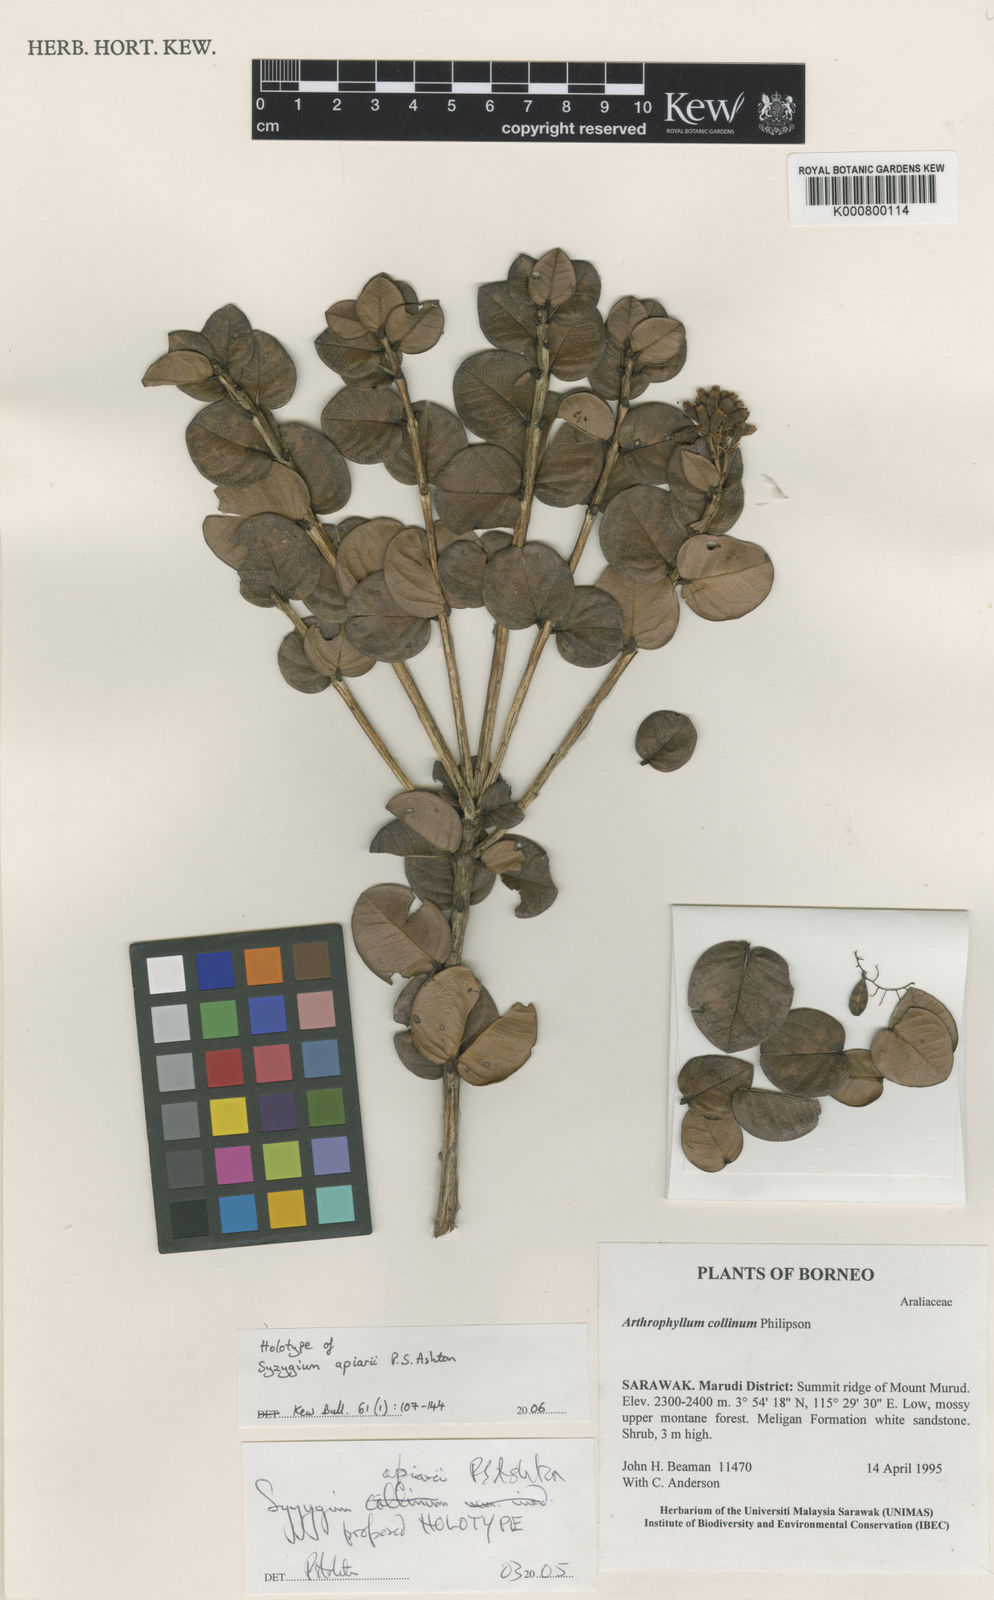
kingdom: Plantae
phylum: Tracheophyta
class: Magnoliopsida
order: Myrtales
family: Myrtaceae
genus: Syzygium
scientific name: Syzygium apiarii
